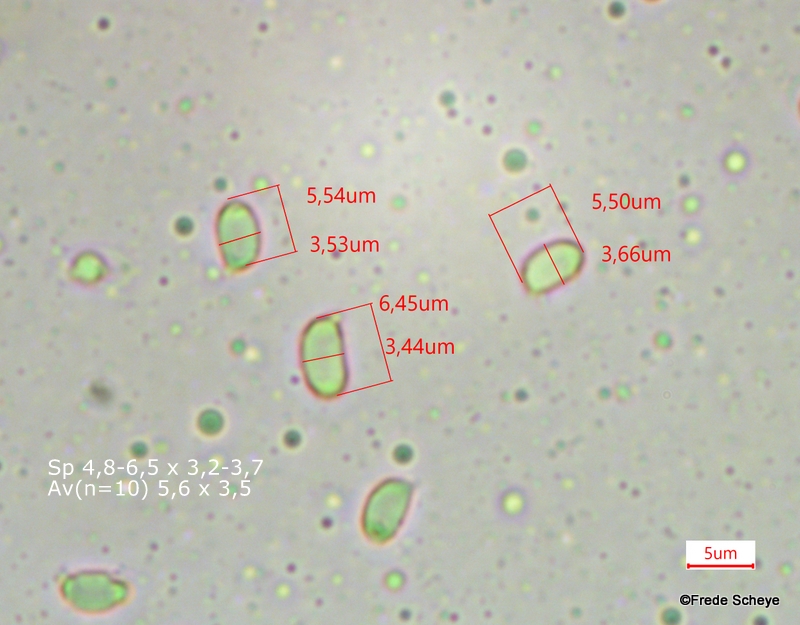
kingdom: Fungi
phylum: Basidiomycota
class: Agaricomycetes
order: Agaricales
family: Tricholomataceae
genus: Tricholoma
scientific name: Tricholoma fulvum
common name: birke-ridderhat
